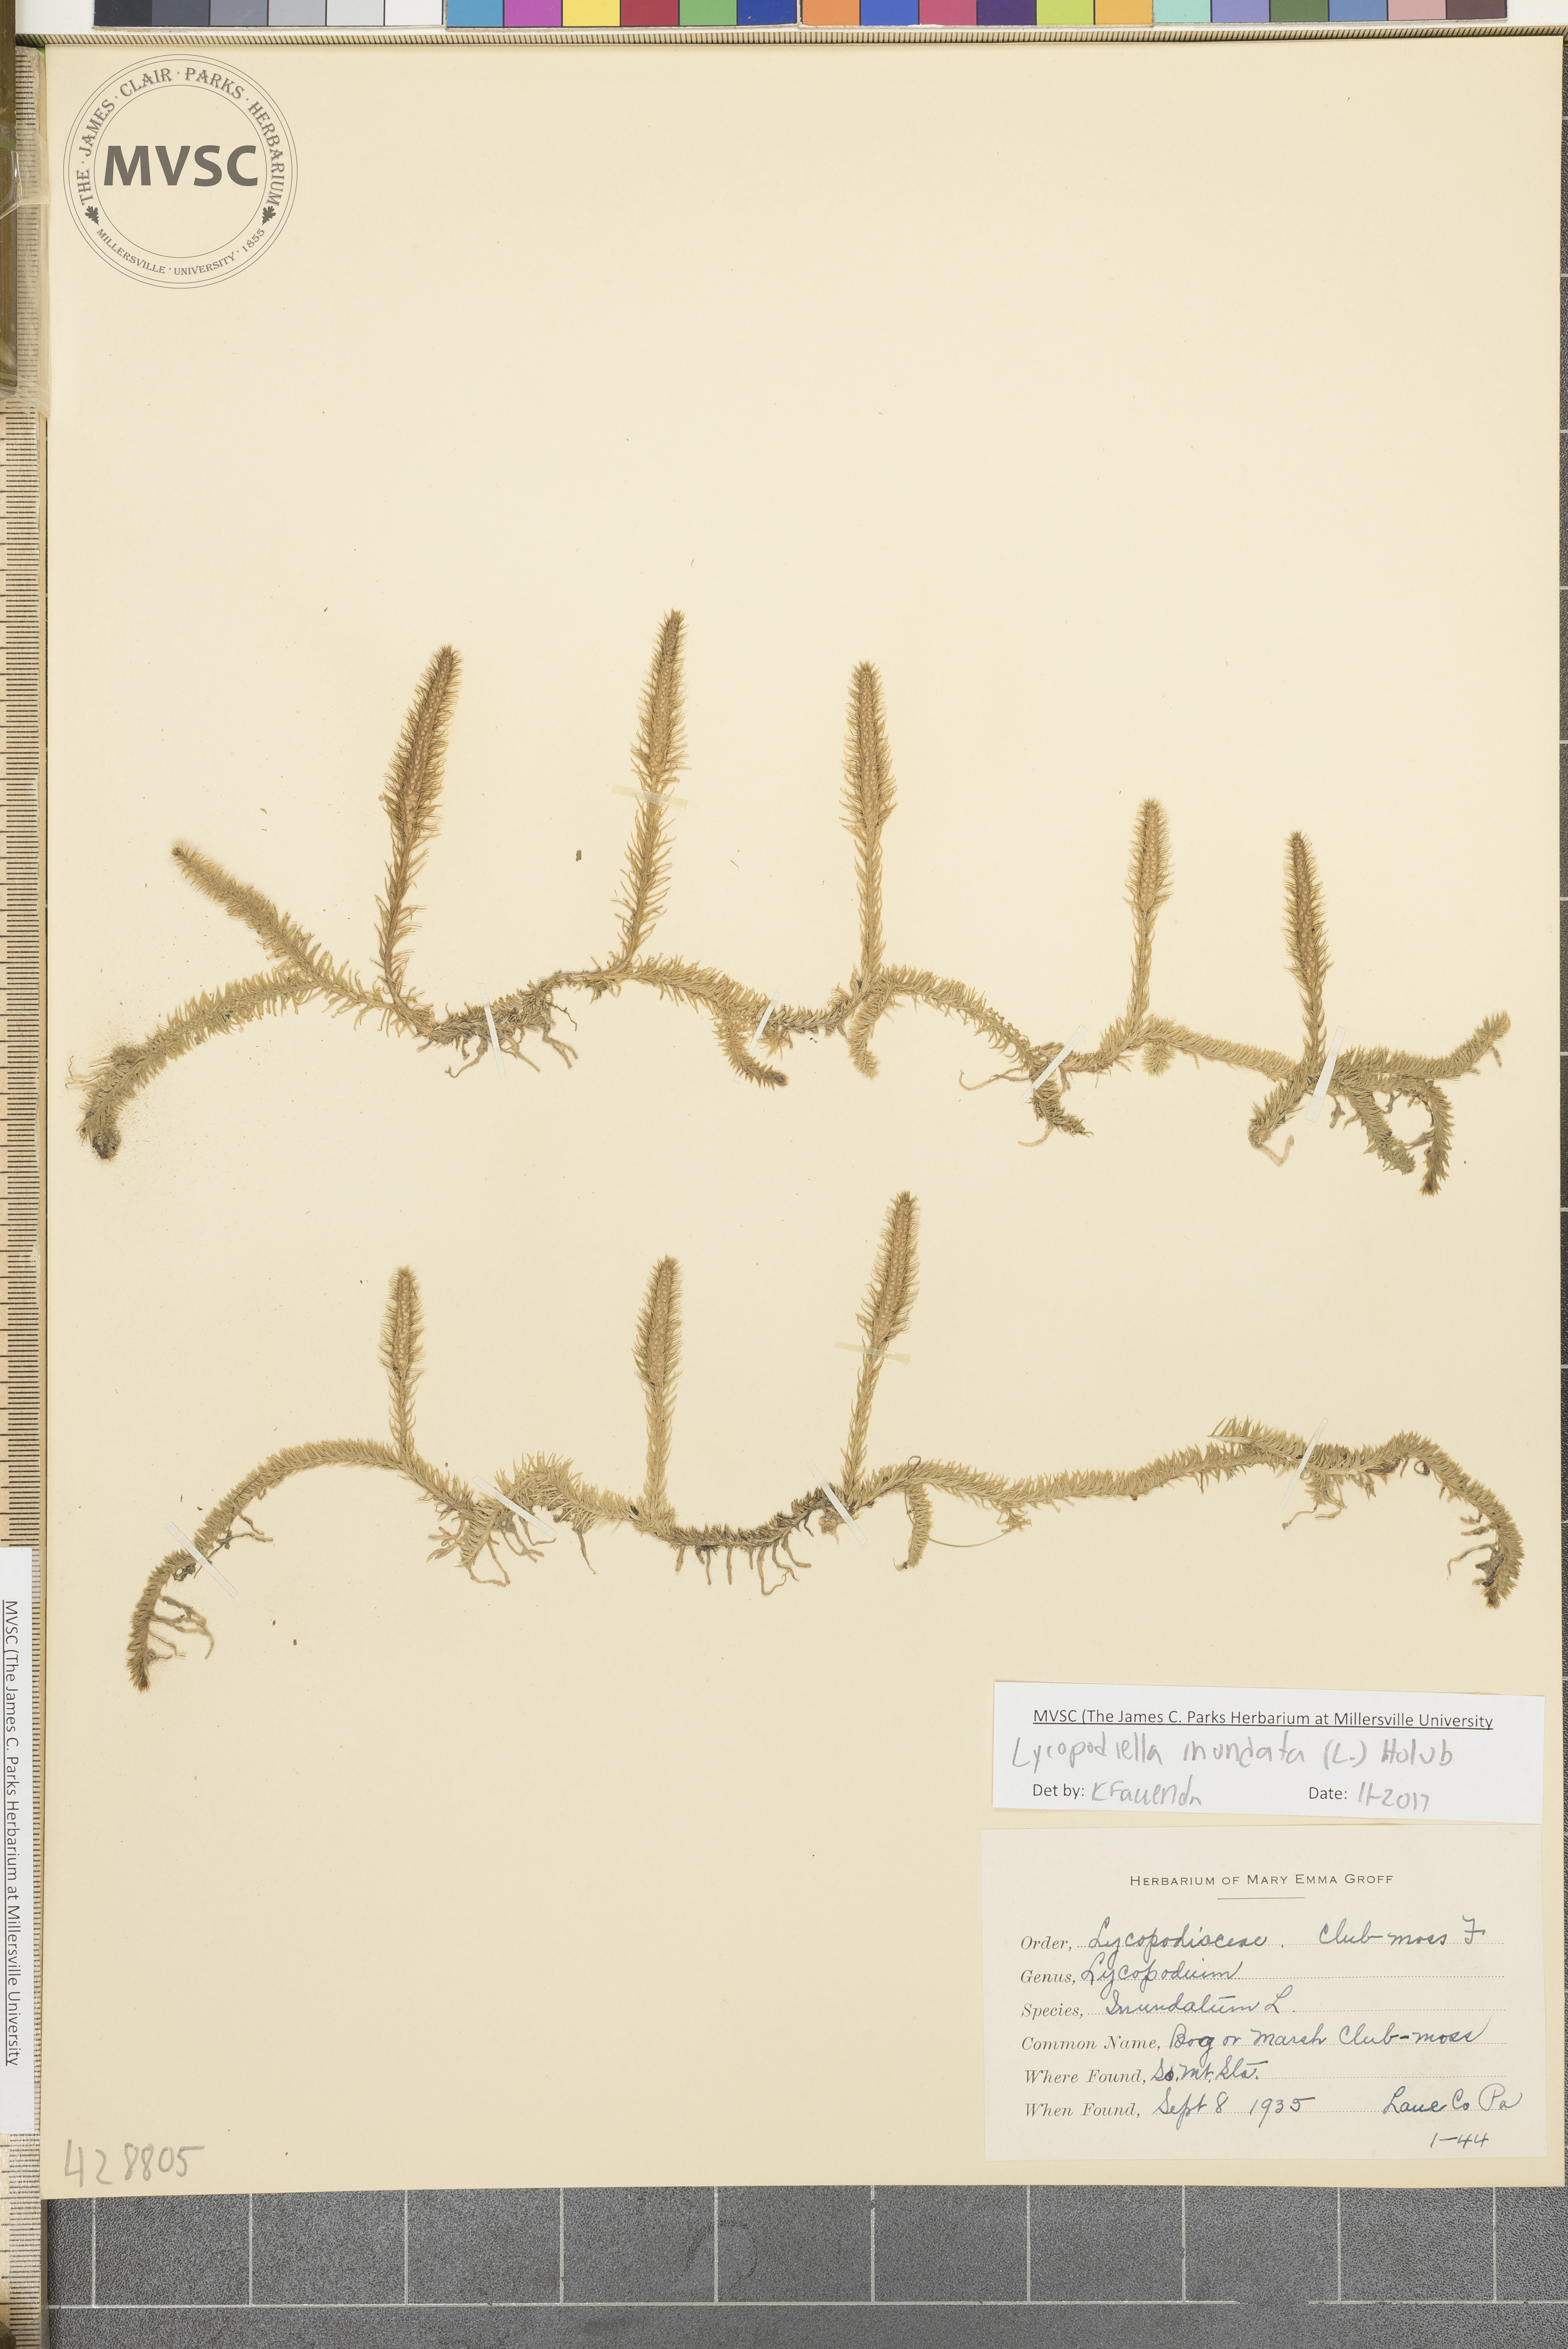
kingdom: Plantae
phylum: Tracheophyta
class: Lycopodiopsida
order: Lycopodiales
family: Lycopodiaceae
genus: Lycopodiella
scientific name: Lycopodiella inundata
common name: Bog clubmoss
